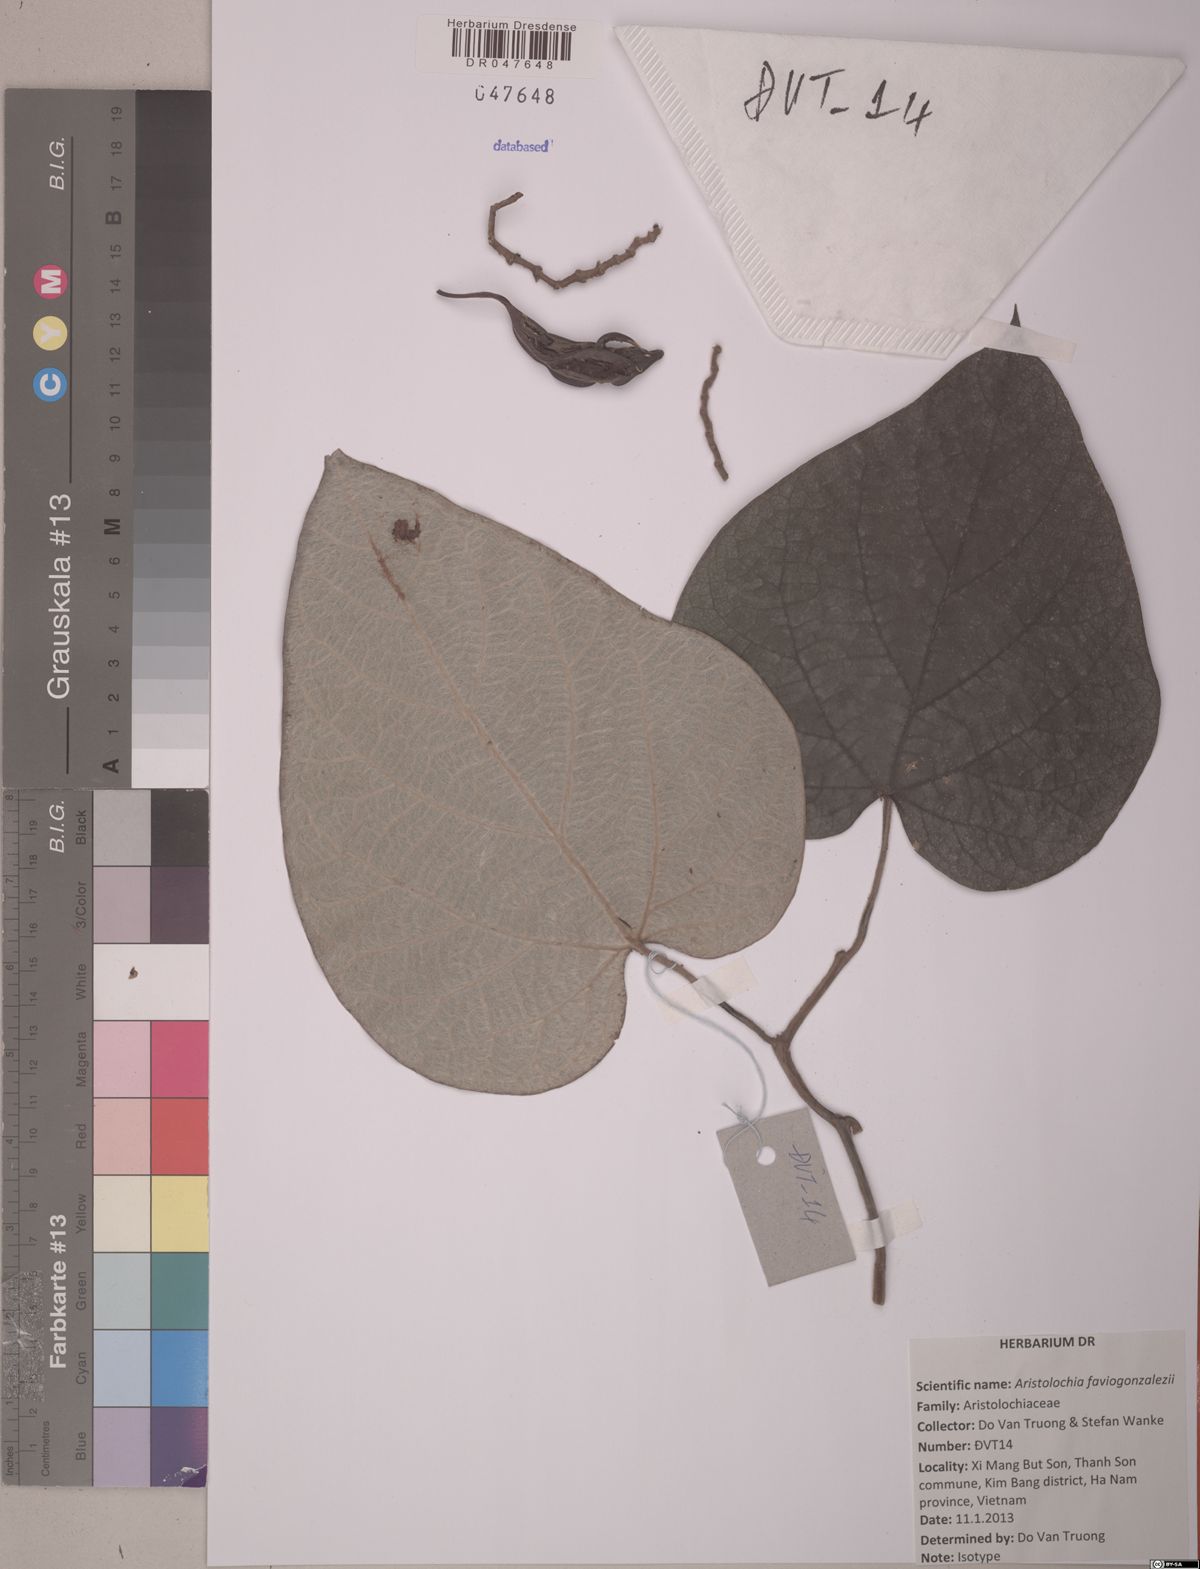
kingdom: Plantae
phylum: Tracheophyta
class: Magnoliopsida
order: Piperales
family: Aristolochiaceae
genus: Isotrema
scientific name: Isotrema faviogonzalezii
